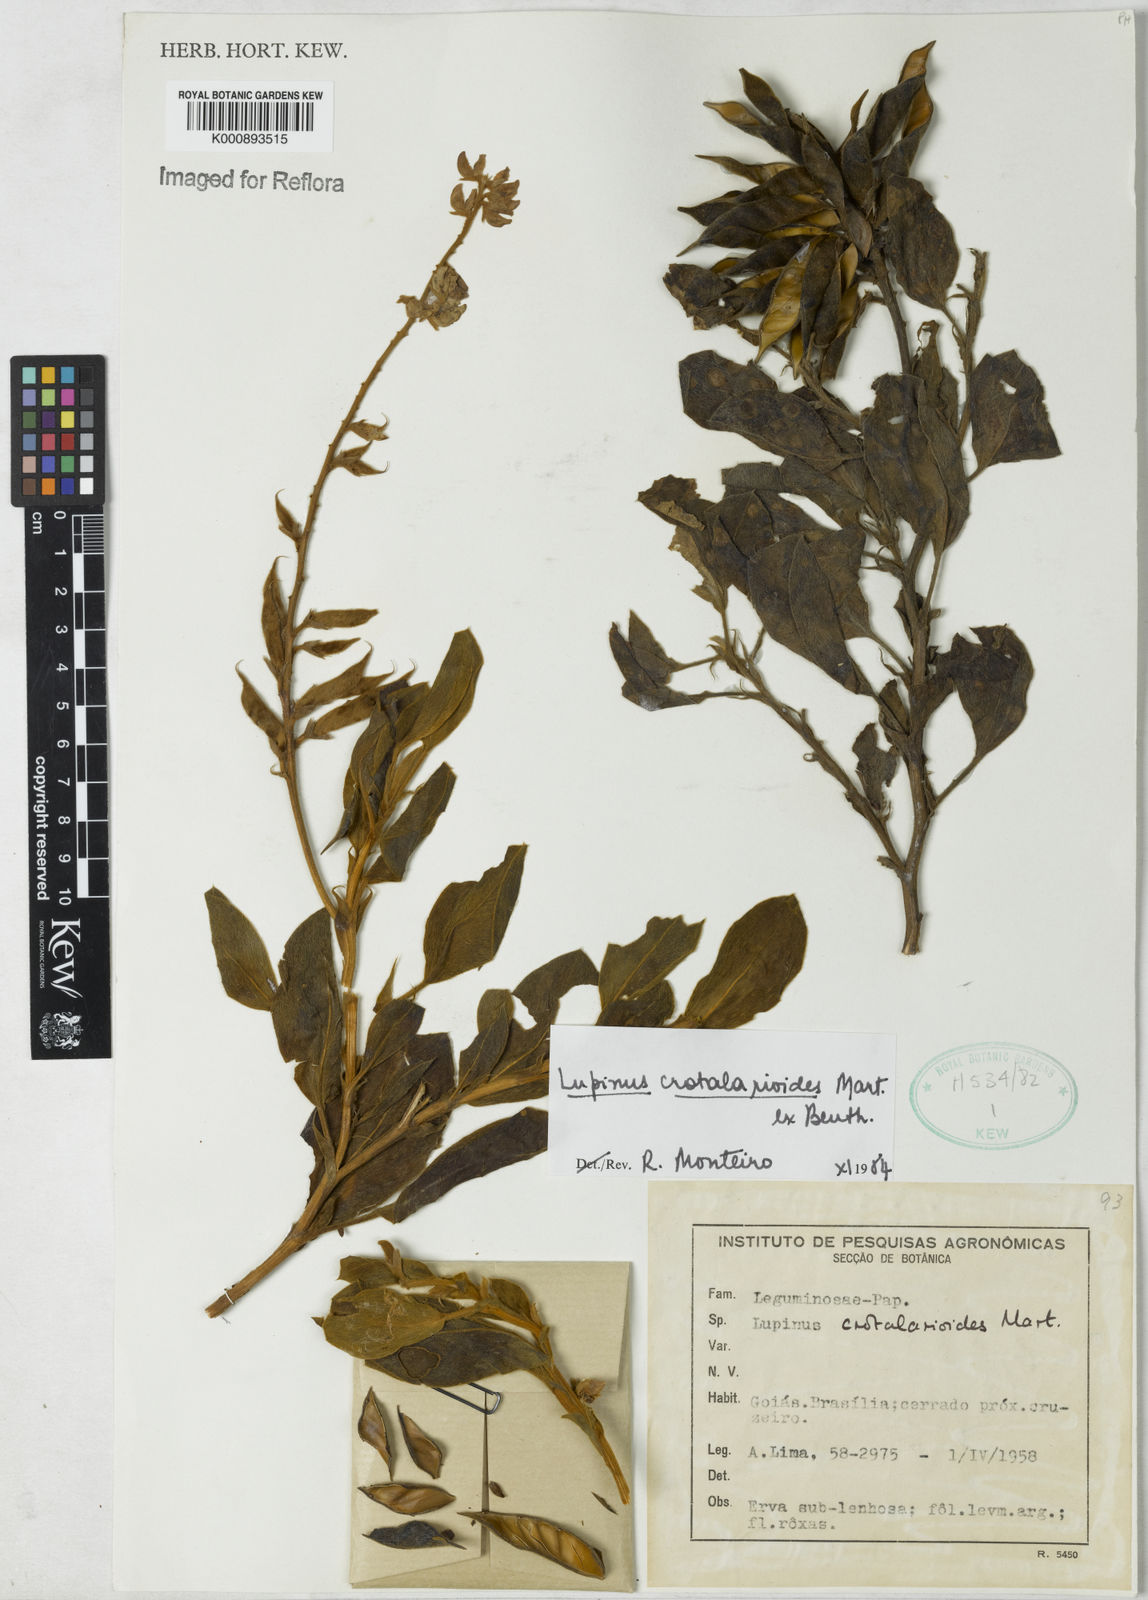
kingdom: Plantae
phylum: Tracheophyta
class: Magnoliopsida
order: Fabales
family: Fabaceae
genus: Lupinus
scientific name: Lupinus crotalarioides
